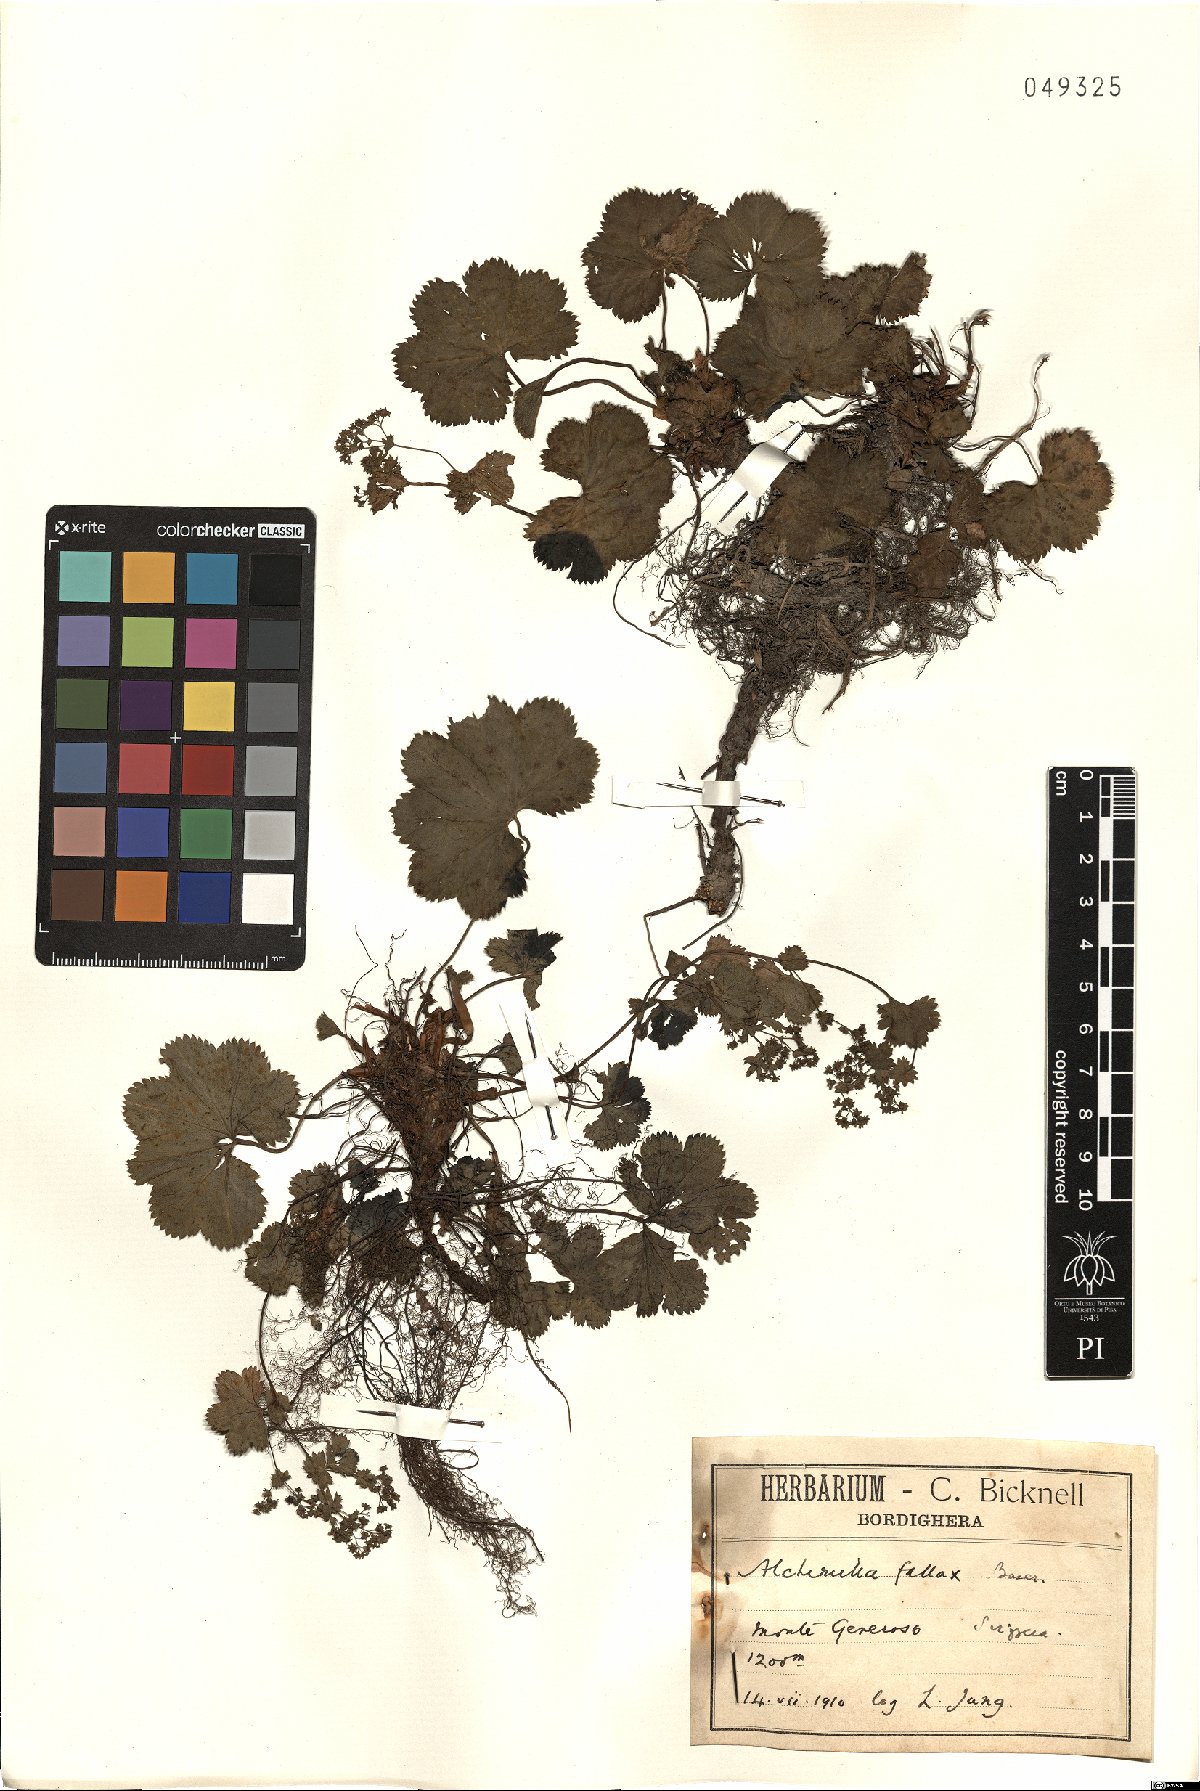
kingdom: Plantae
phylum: Tracheophyta
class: Magnoliopsida
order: Rosales
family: Rosaceae
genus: Alchemilla
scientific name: Alchemilla fallax
